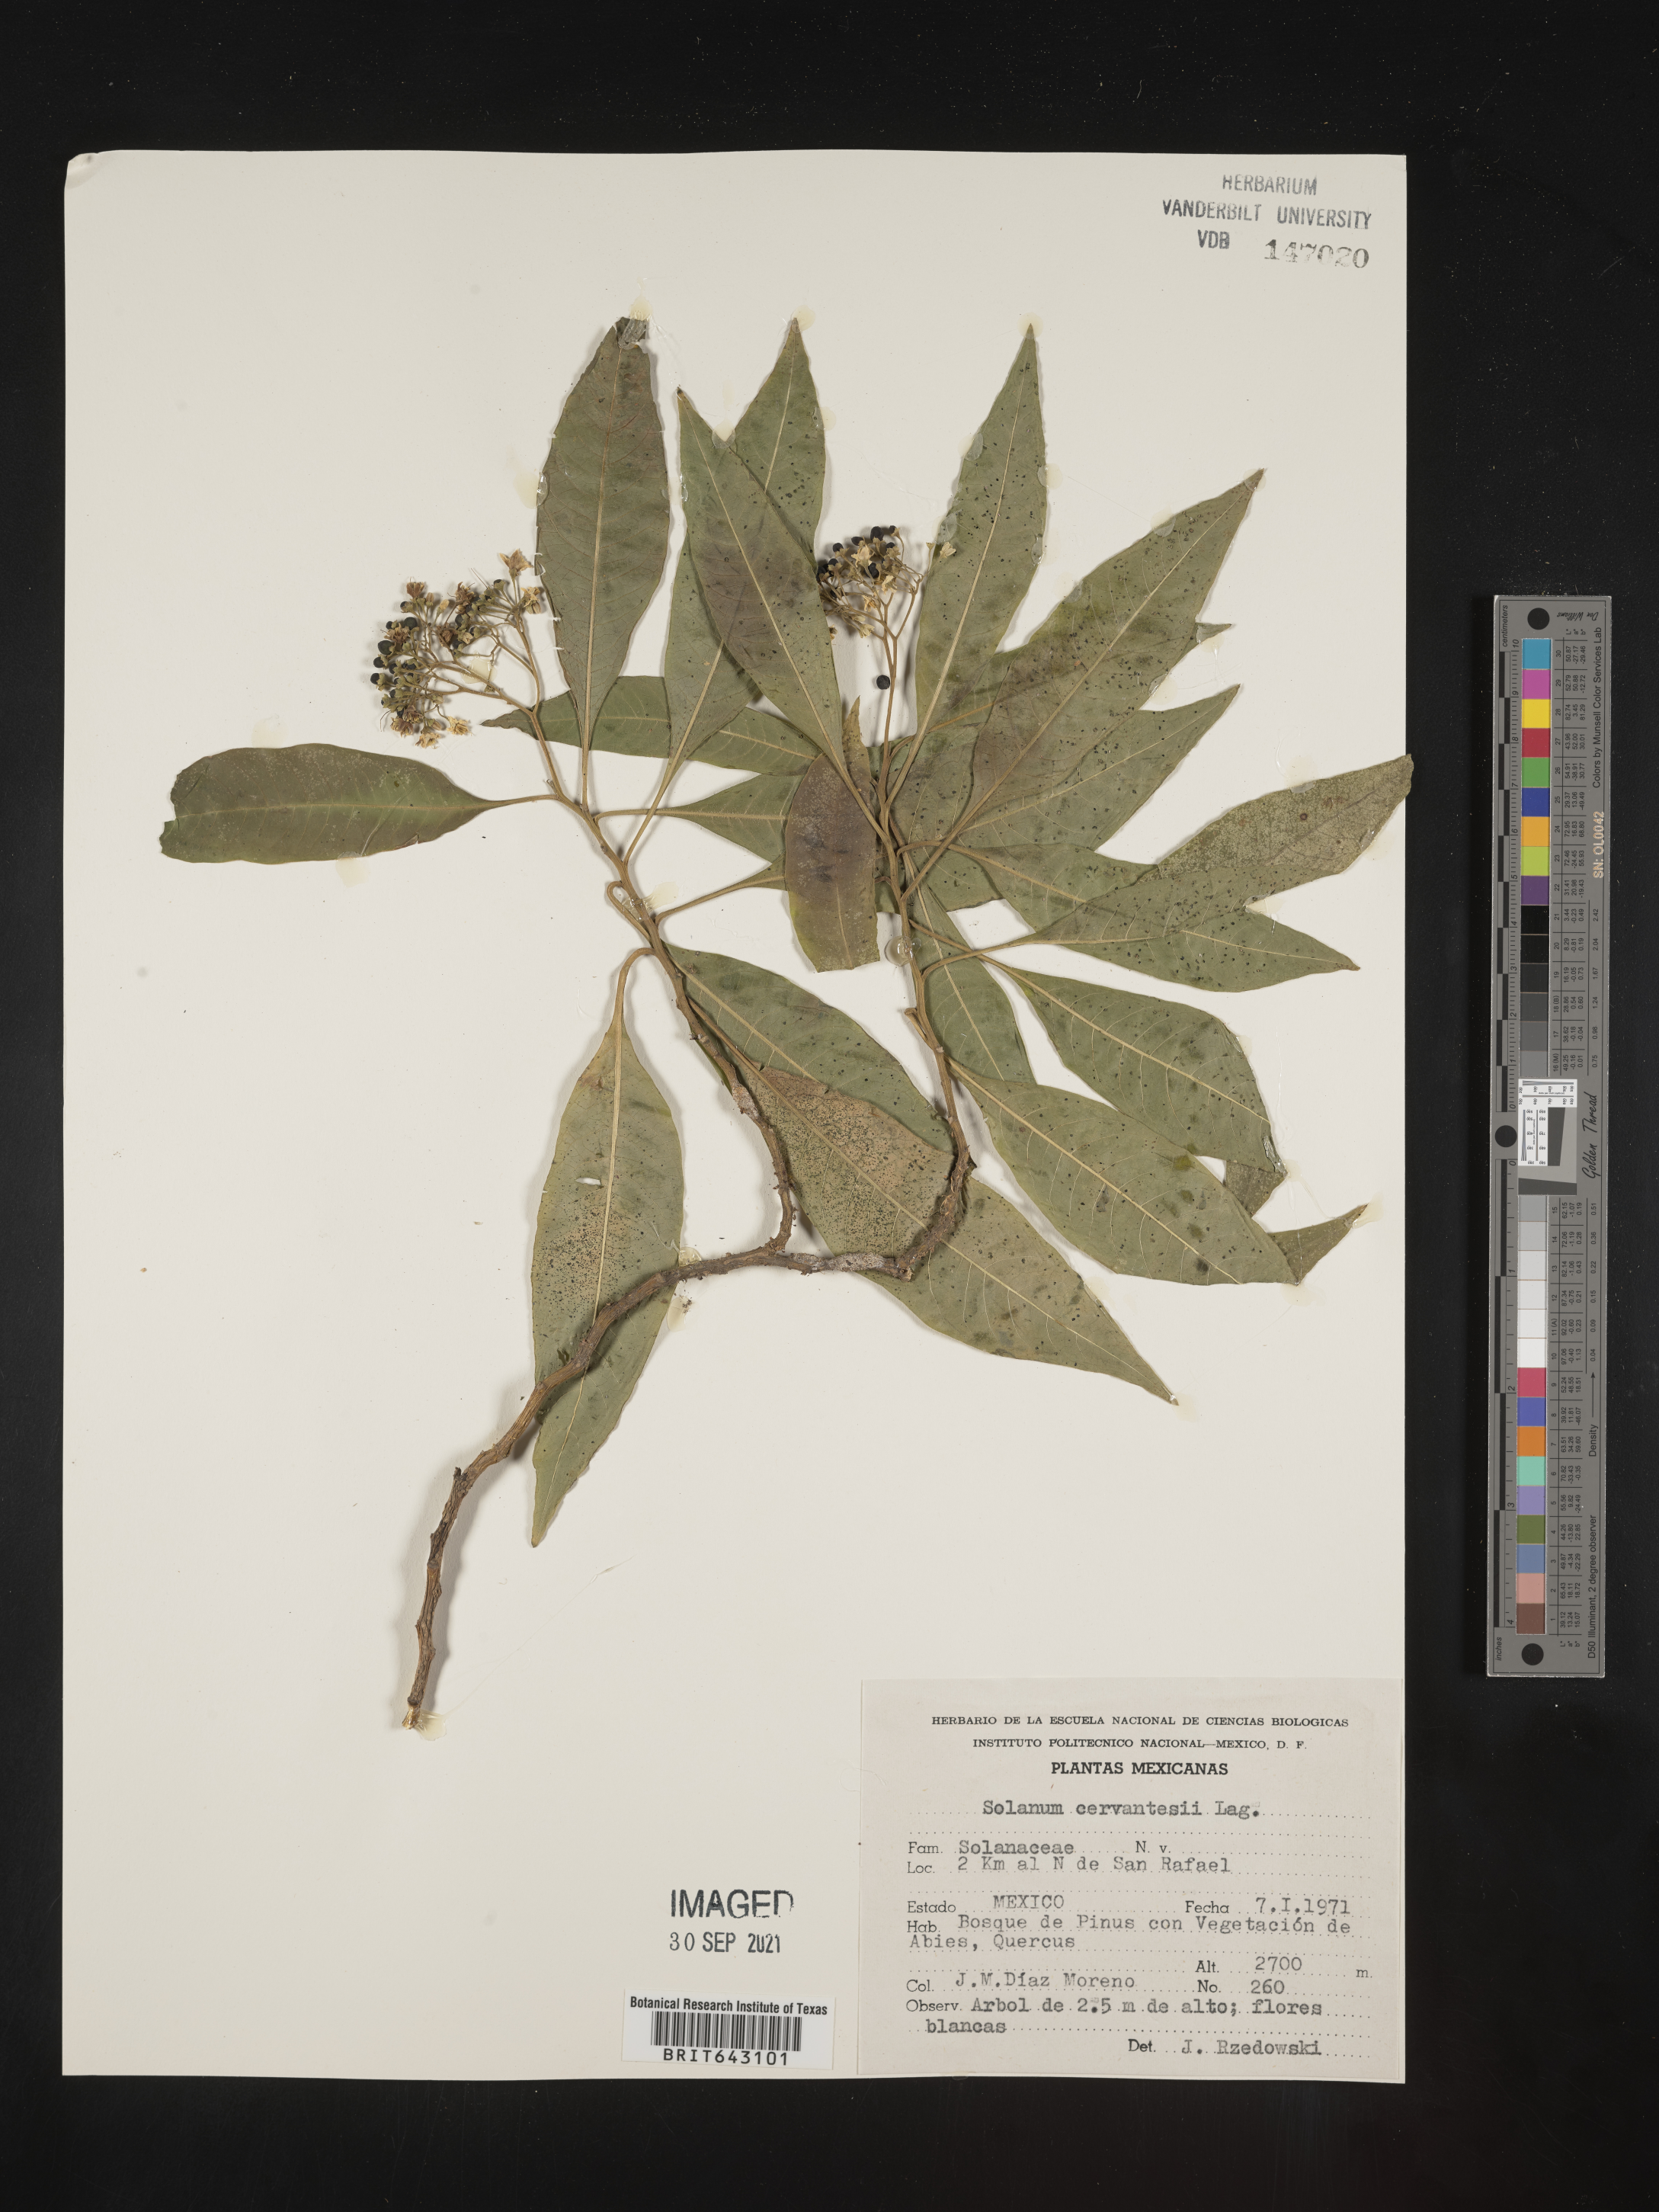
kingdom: Plantae
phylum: Tracheophyta
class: Magnoliopsida
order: Solanales
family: Solanaceae
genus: Solanum
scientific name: Solanum
